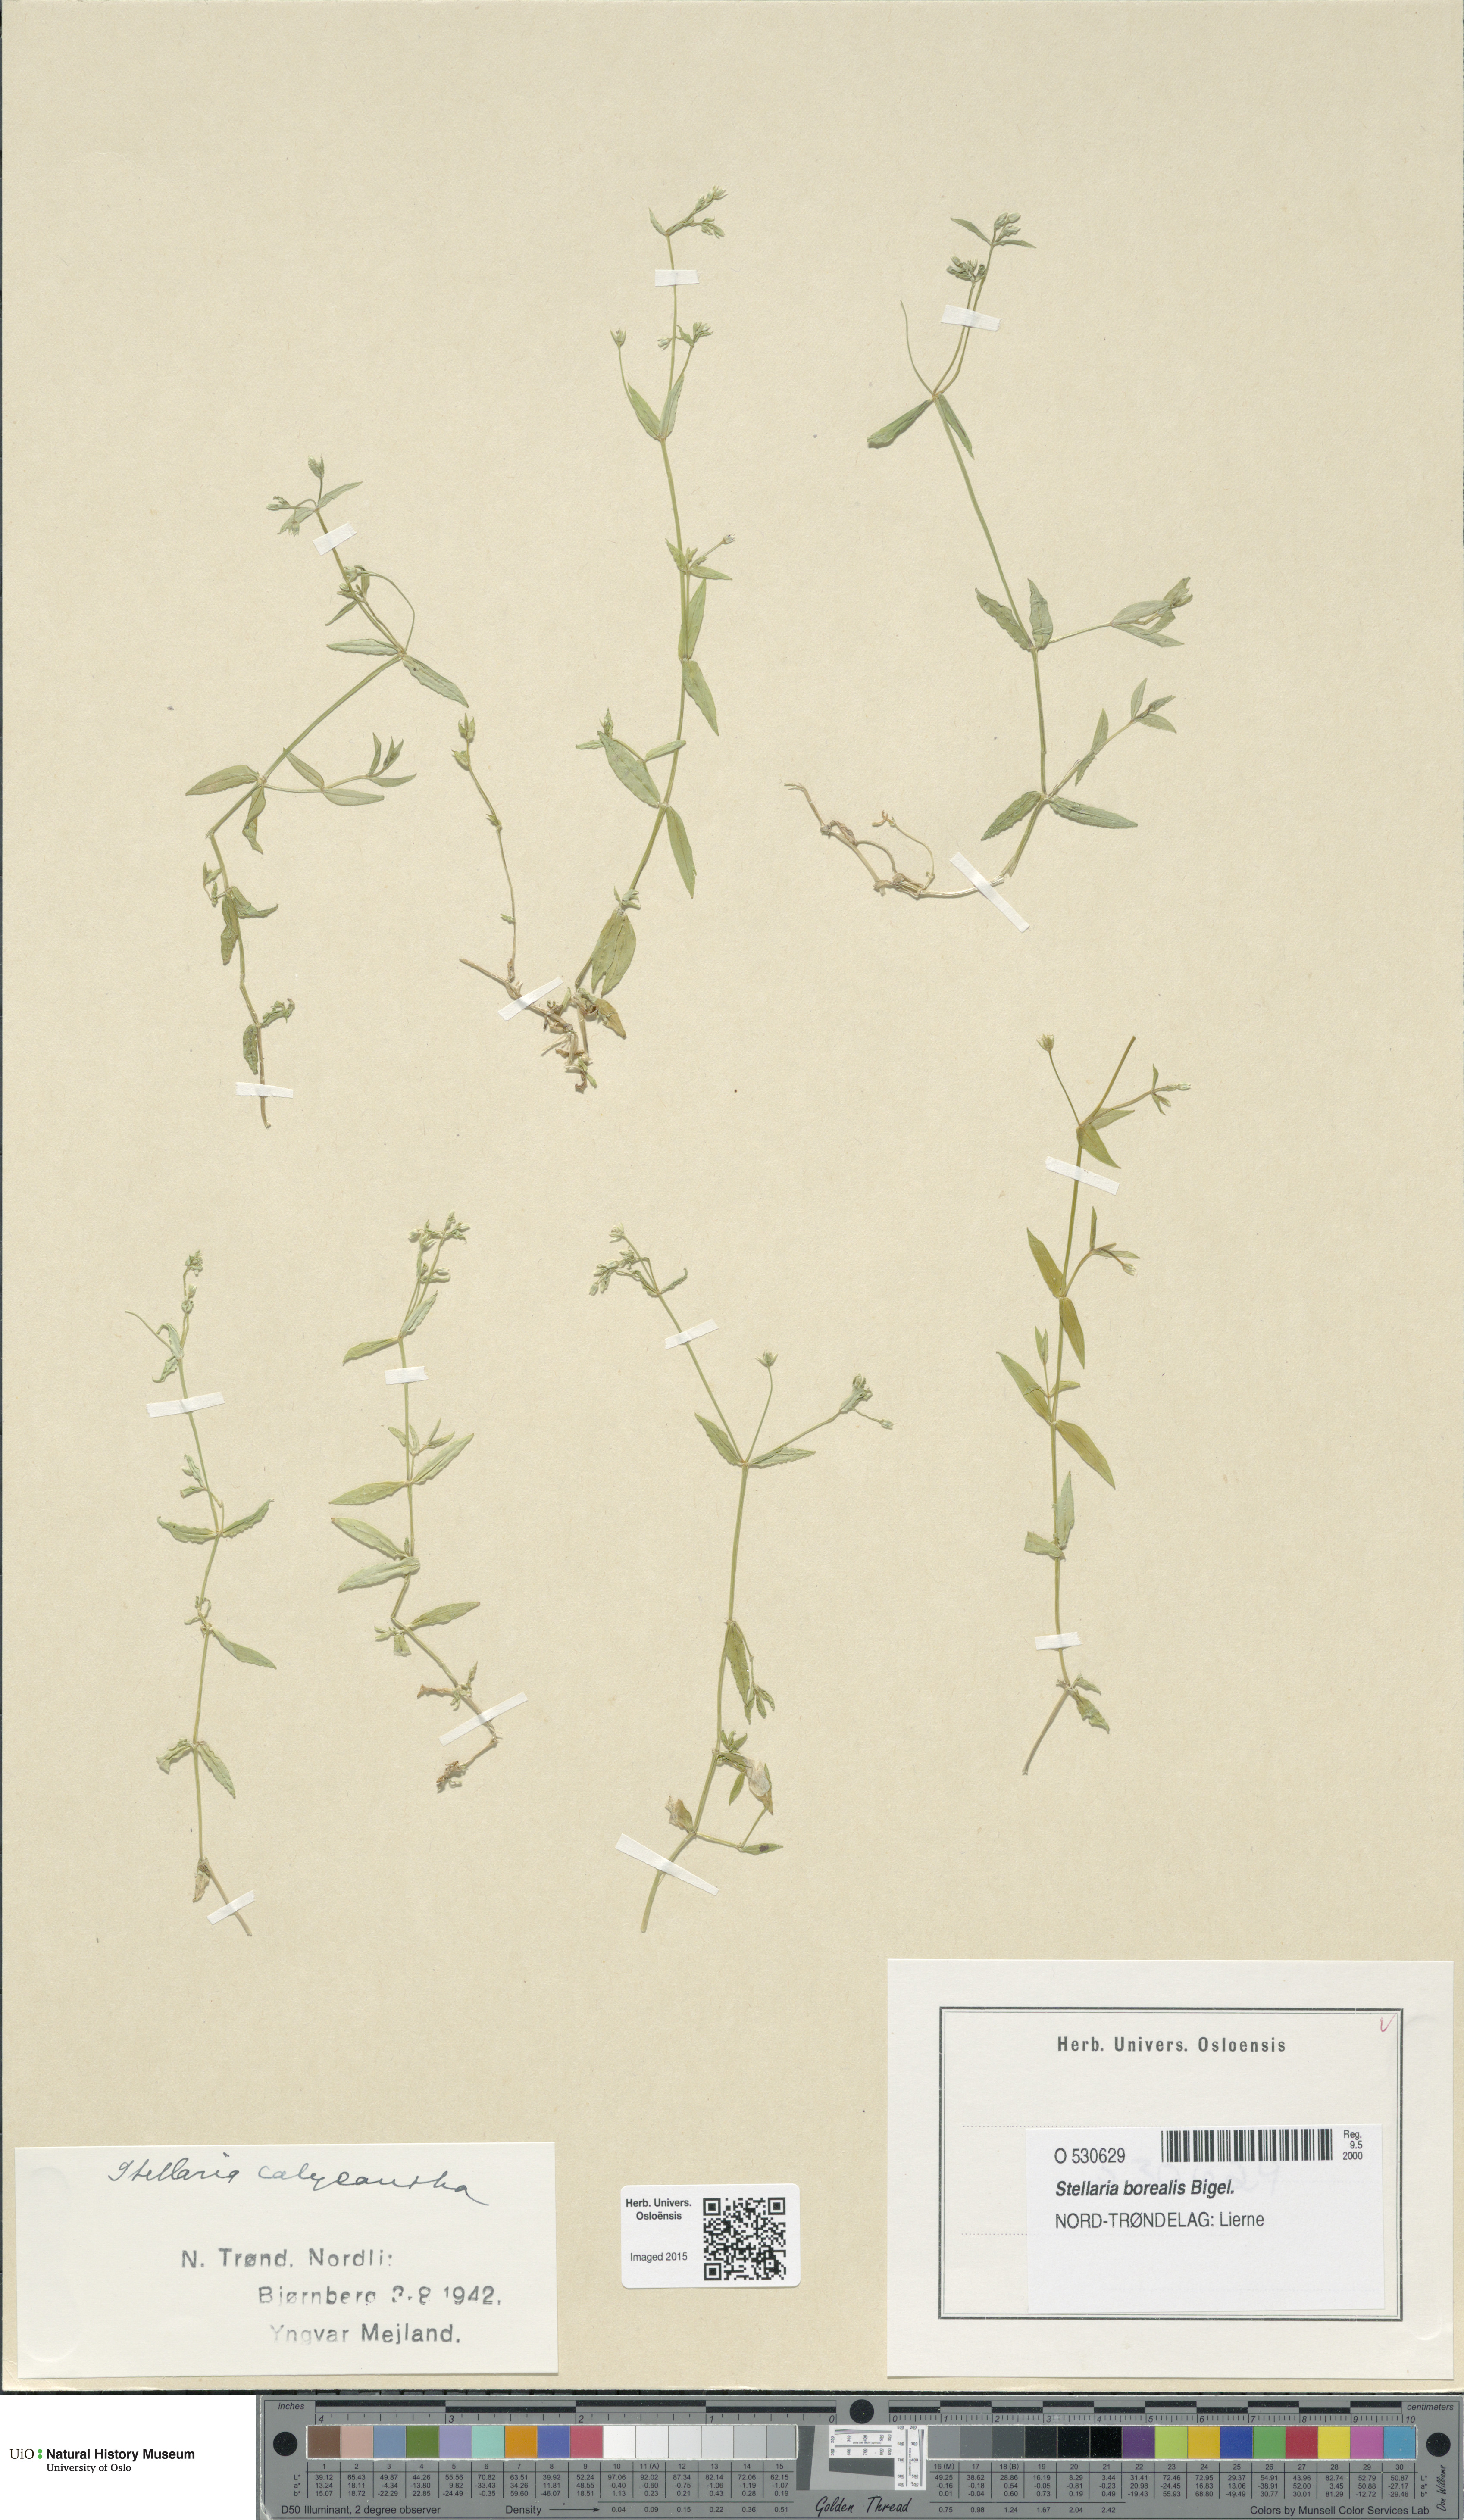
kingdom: Plantae
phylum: Tracheophyta
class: Magnoliopsida
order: Caryophyllales
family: Caryophyllaceae
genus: Stellaria
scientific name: Stellaria borealis
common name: Boreal starwort
